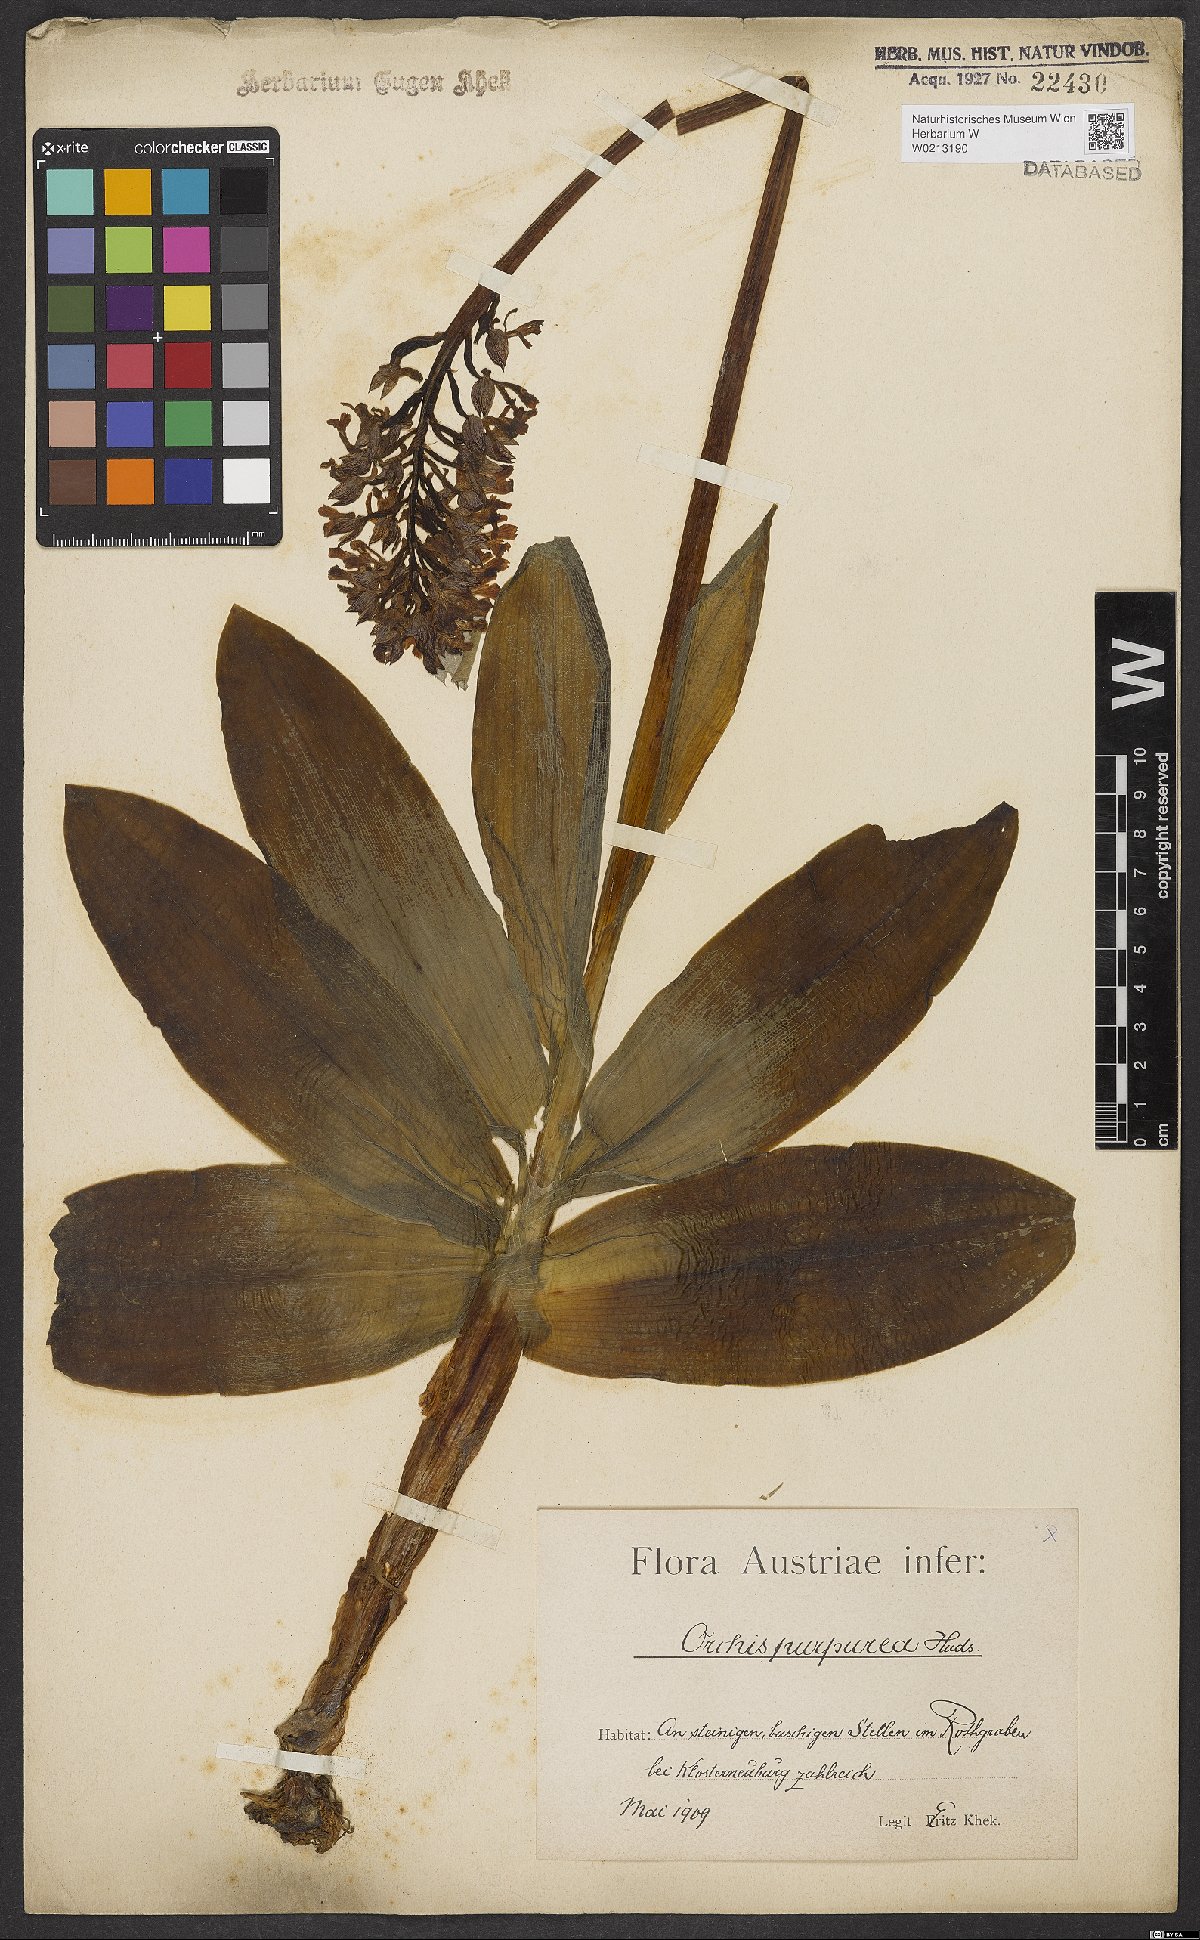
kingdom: Plantae
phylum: Tracheophyta
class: Liliopsida
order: Asparagales
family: Orchidaceae
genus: Orchis
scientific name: Orchis purpurea
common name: Lady orchid
